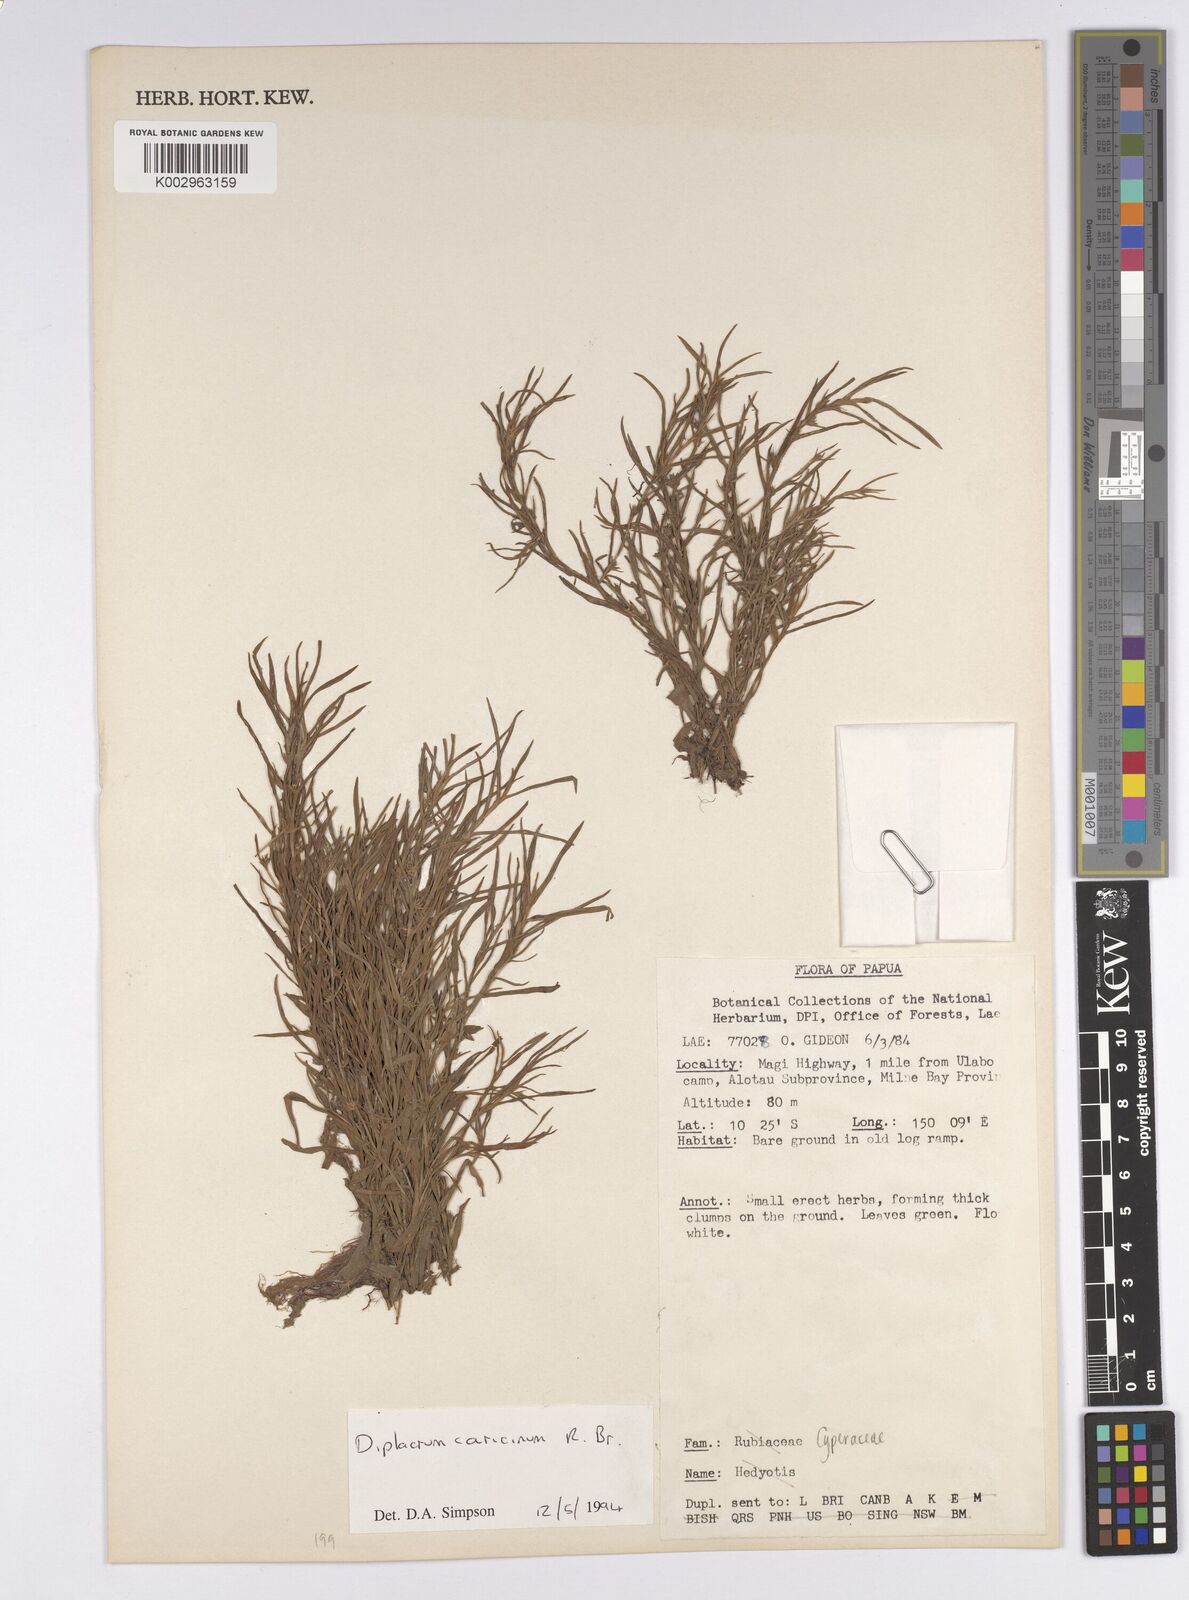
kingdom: Plantae
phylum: Tracheophyta
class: Liliopsida
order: Poales
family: Cyperaceae
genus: Diplacrum
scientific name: Diplacrum caricinum
